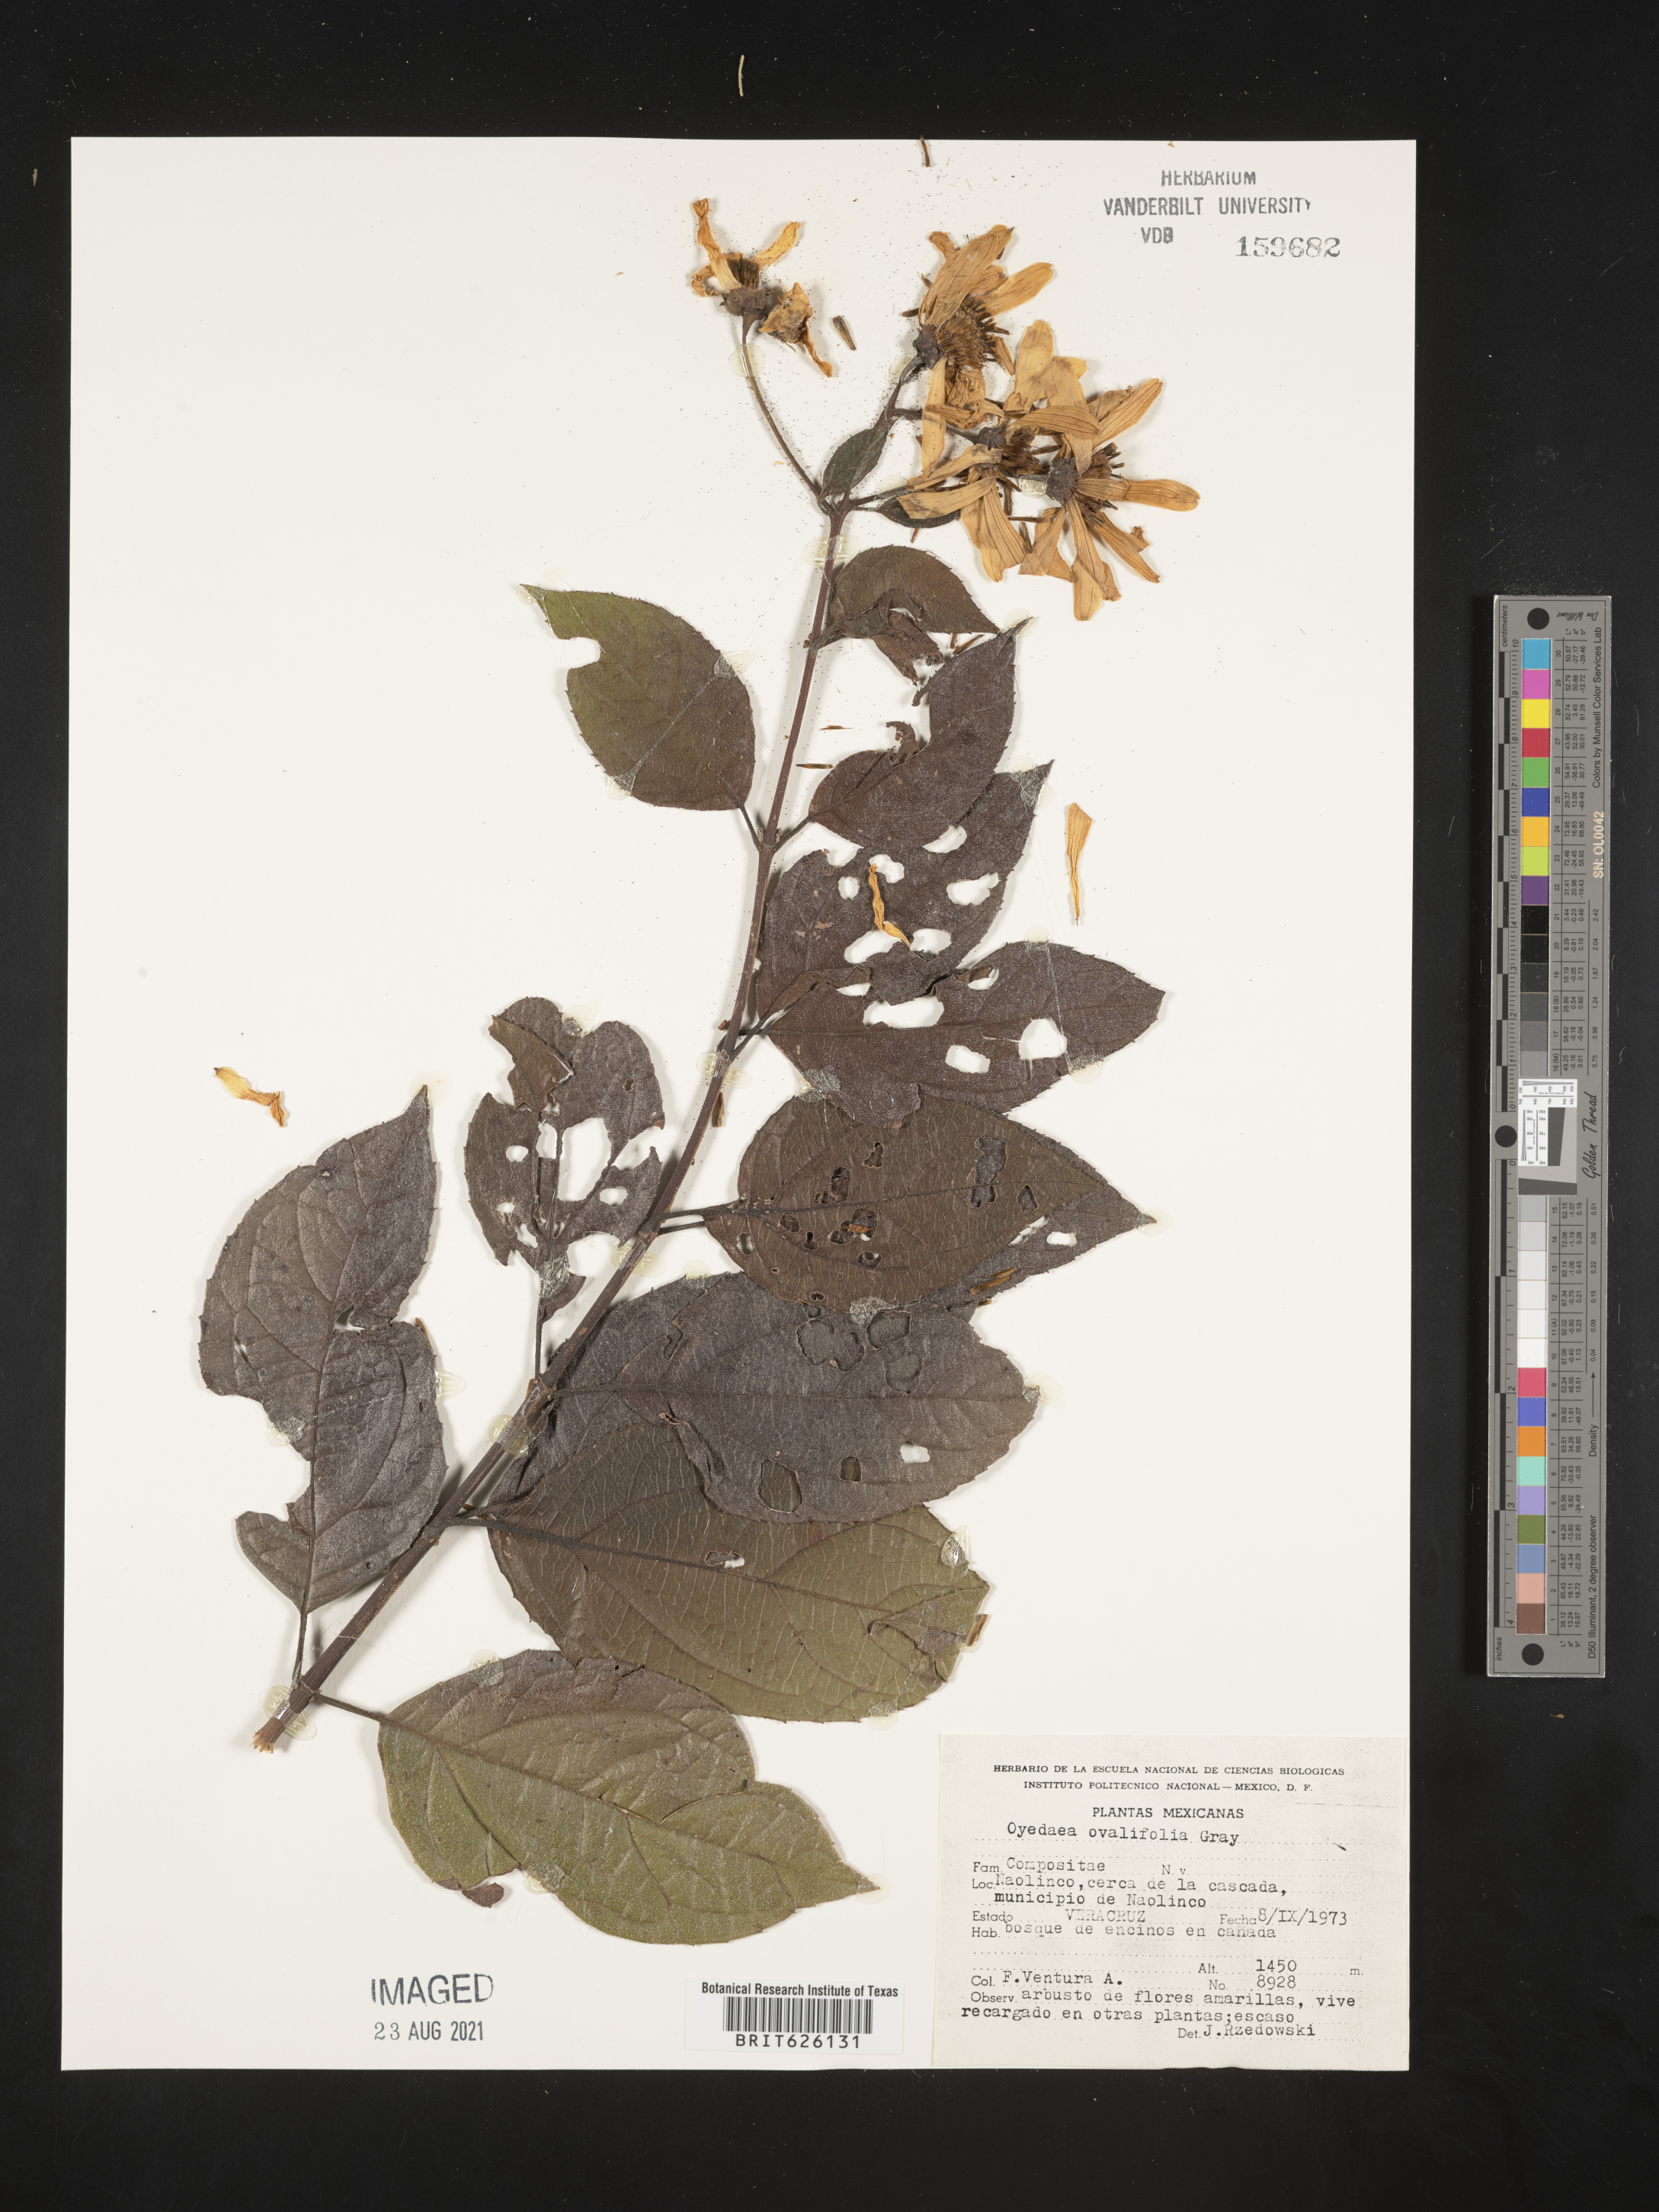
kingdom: Plantae
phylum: Tracheophyta
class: Magnoliopsida
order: Asterales
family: Asteraceae
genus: Oyedaea
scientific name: Oyedaea
